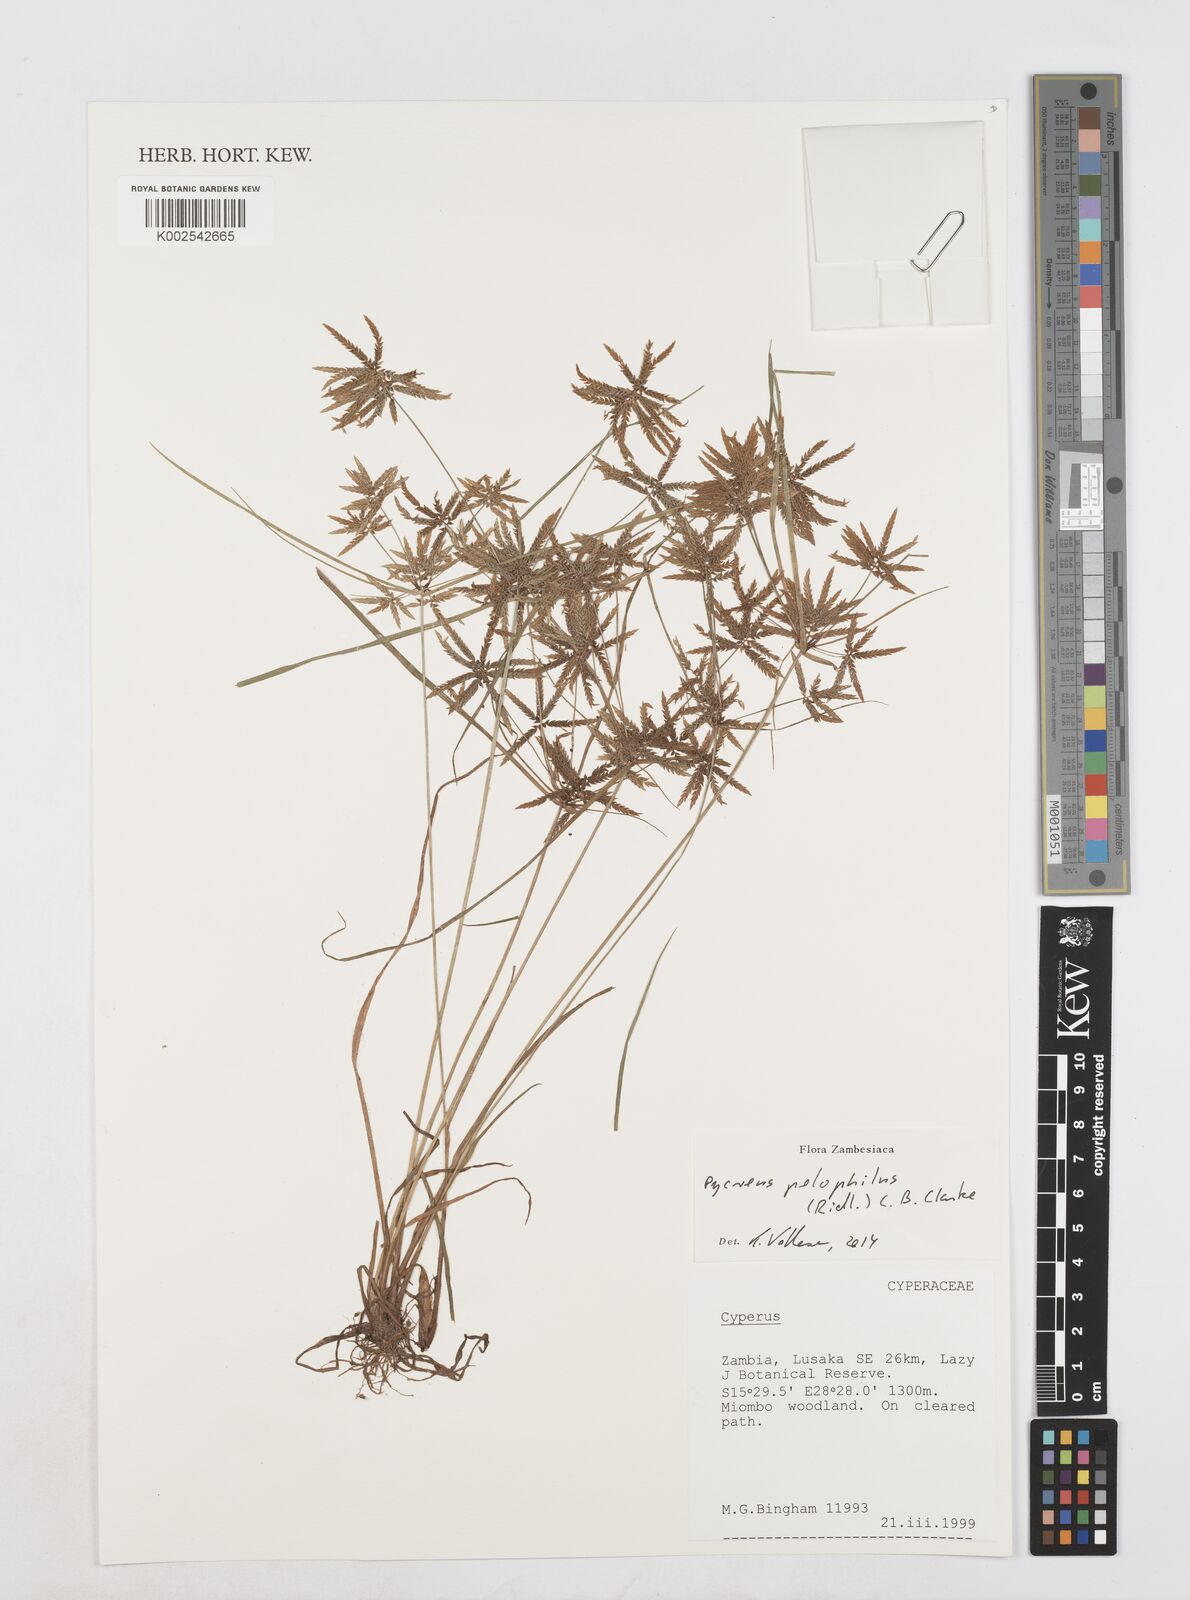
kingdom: Plantae
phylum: Tracheophyta
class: Liliopsida
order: Poales
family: Cyperaceae
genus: Cyperus
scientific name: Cyperus pelophilus
